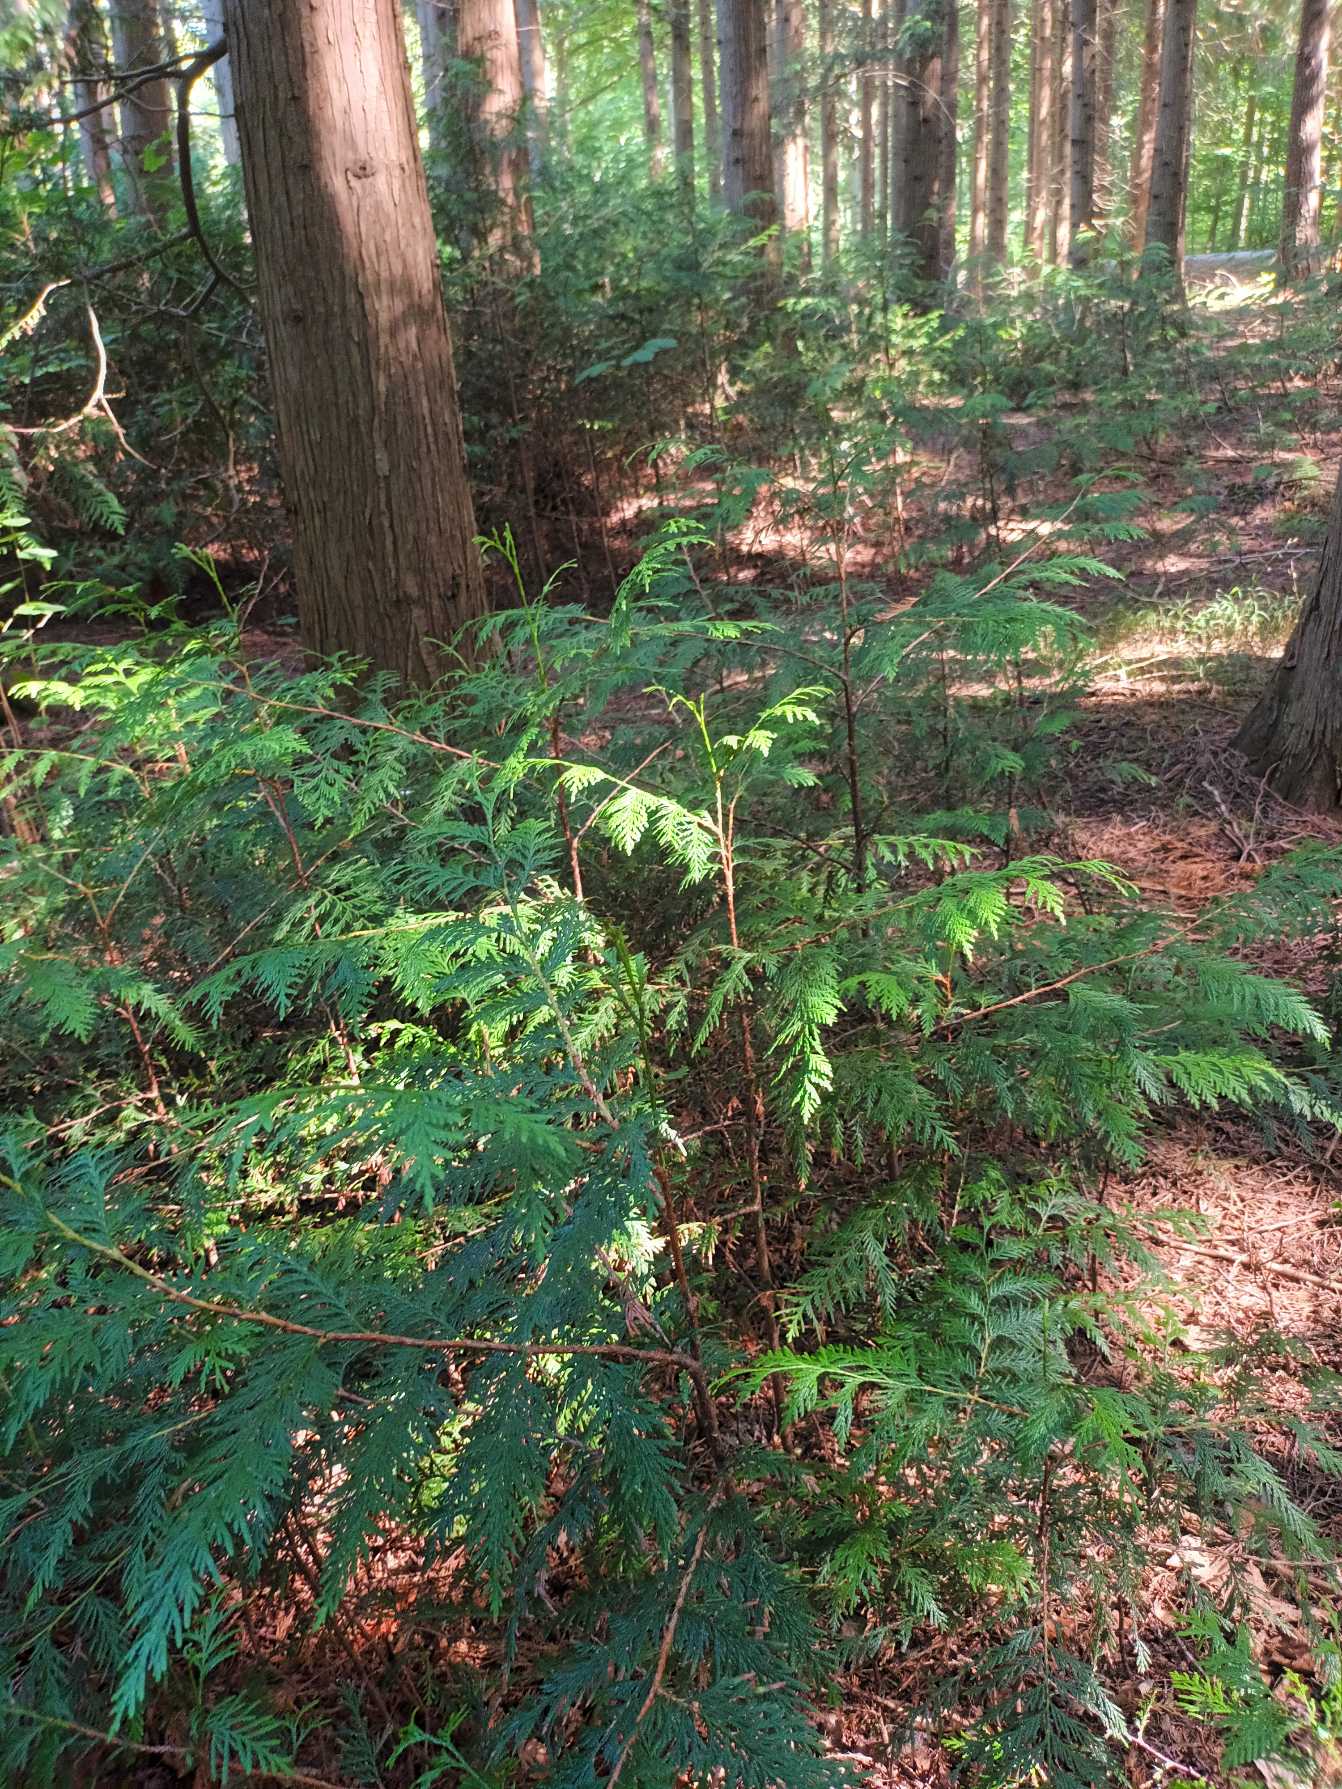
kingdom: Plantae
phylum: Tracheophyta
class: Pinopsida
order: Pinales
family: Cupressaceae
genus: Chamaecyparis
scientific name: Chamaecyparis lawsoniana
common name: Ædelcypres
